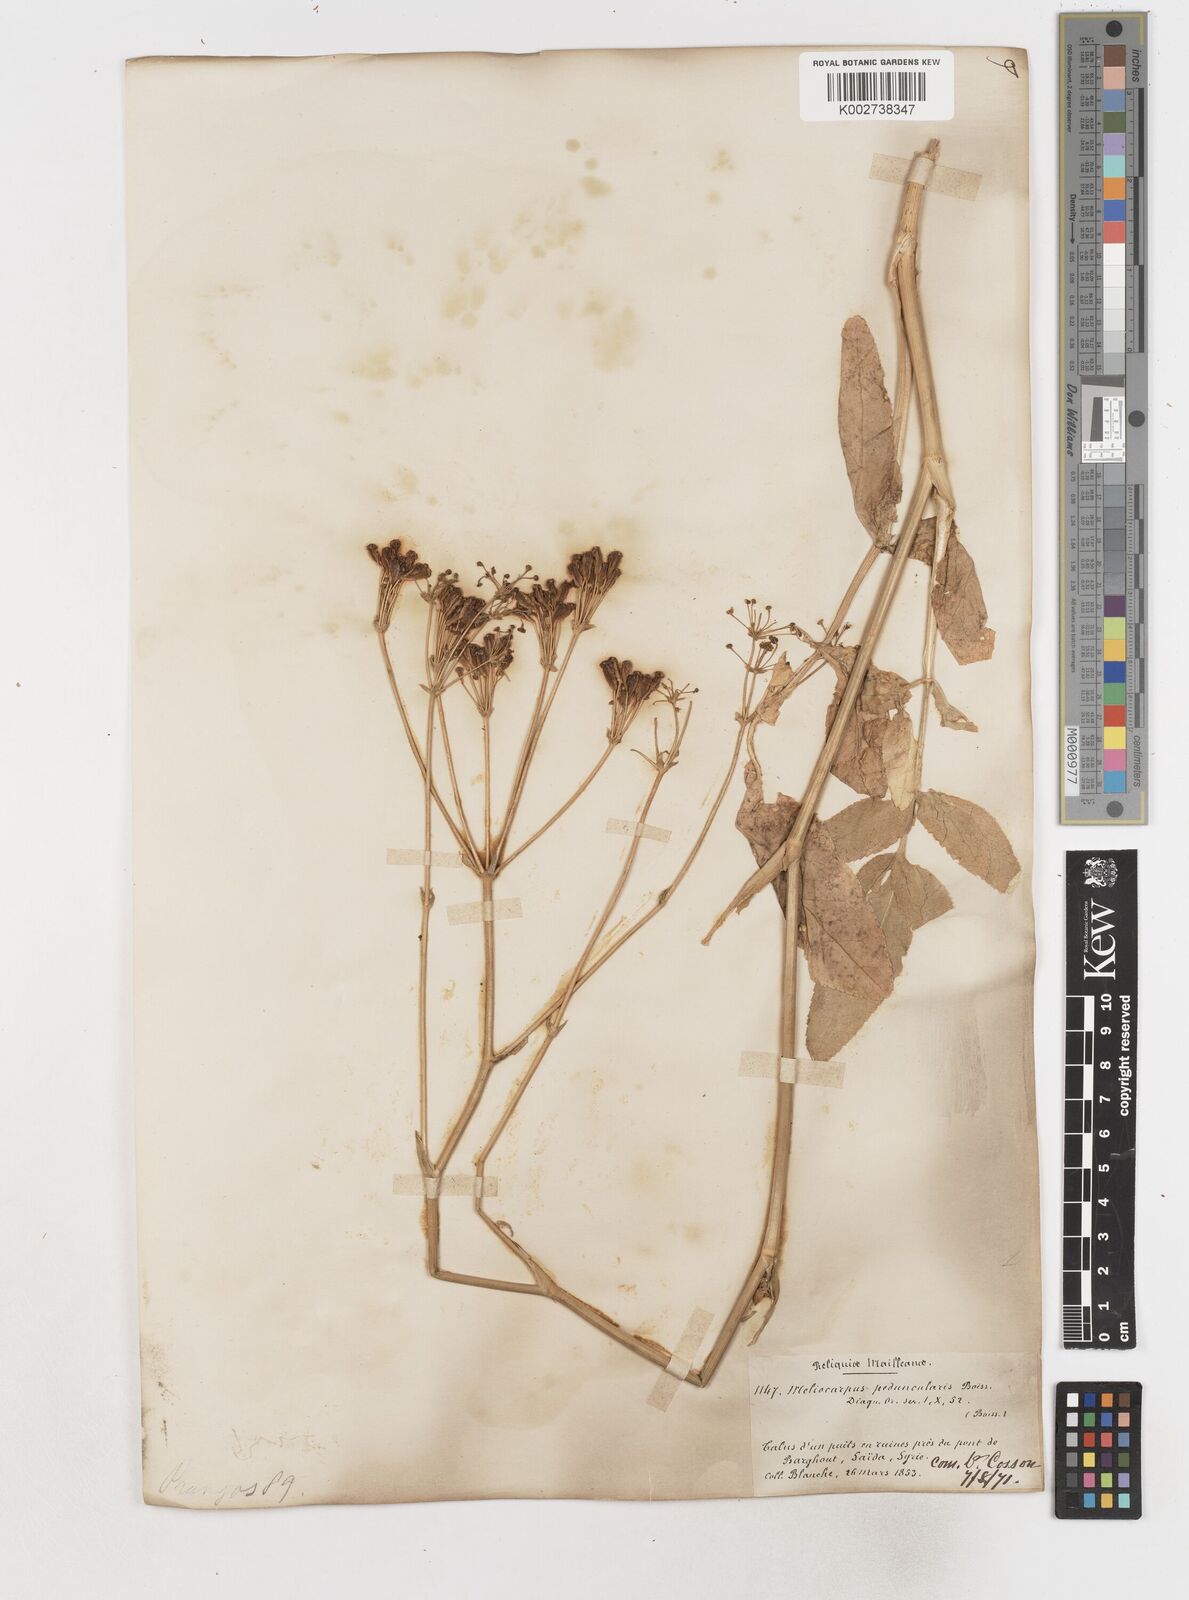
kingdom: Plantae
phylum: Tracheophyta
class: Magnoliopsida
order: Apiales
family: Apiaceae
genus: Heptaptera
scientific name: Heptaptera anisoptera
